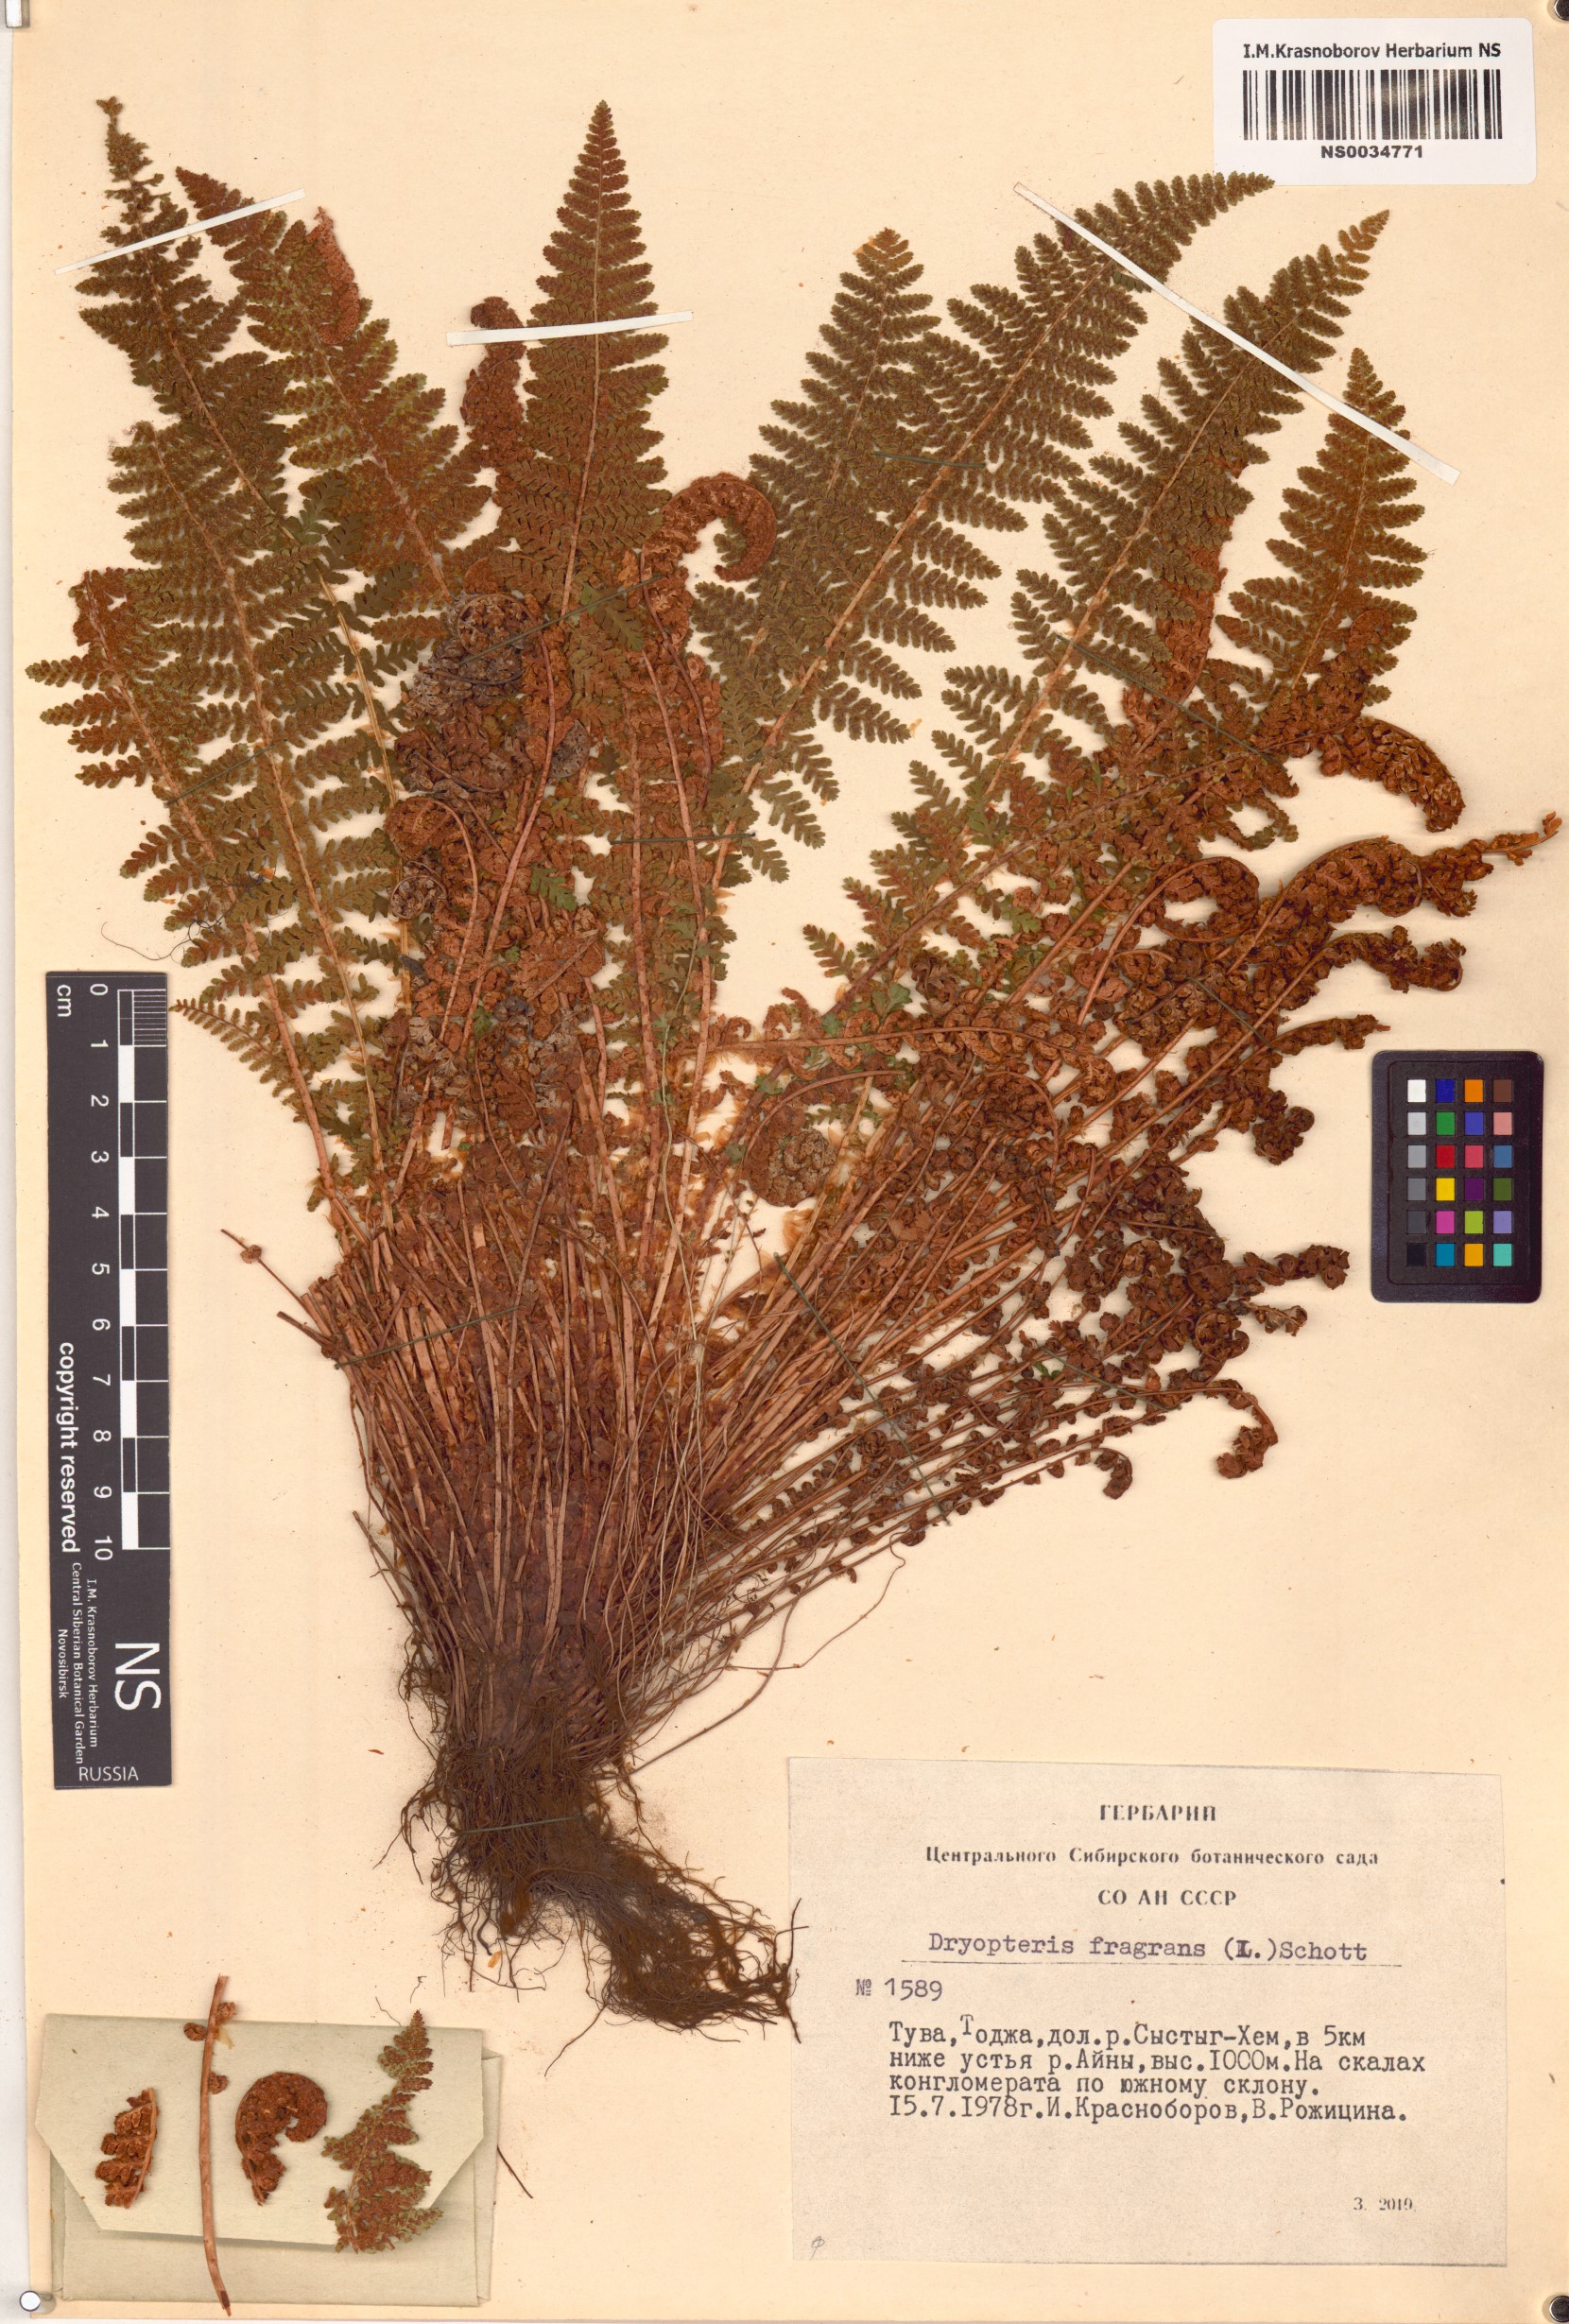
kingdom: Plantae
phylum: Tracheophyta
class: Polypodiopsida
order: Polypodiales
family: Dryopteridaceae
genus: Dryopteris
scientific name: Dryopteris fragrans
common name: Fragrant wood fern
